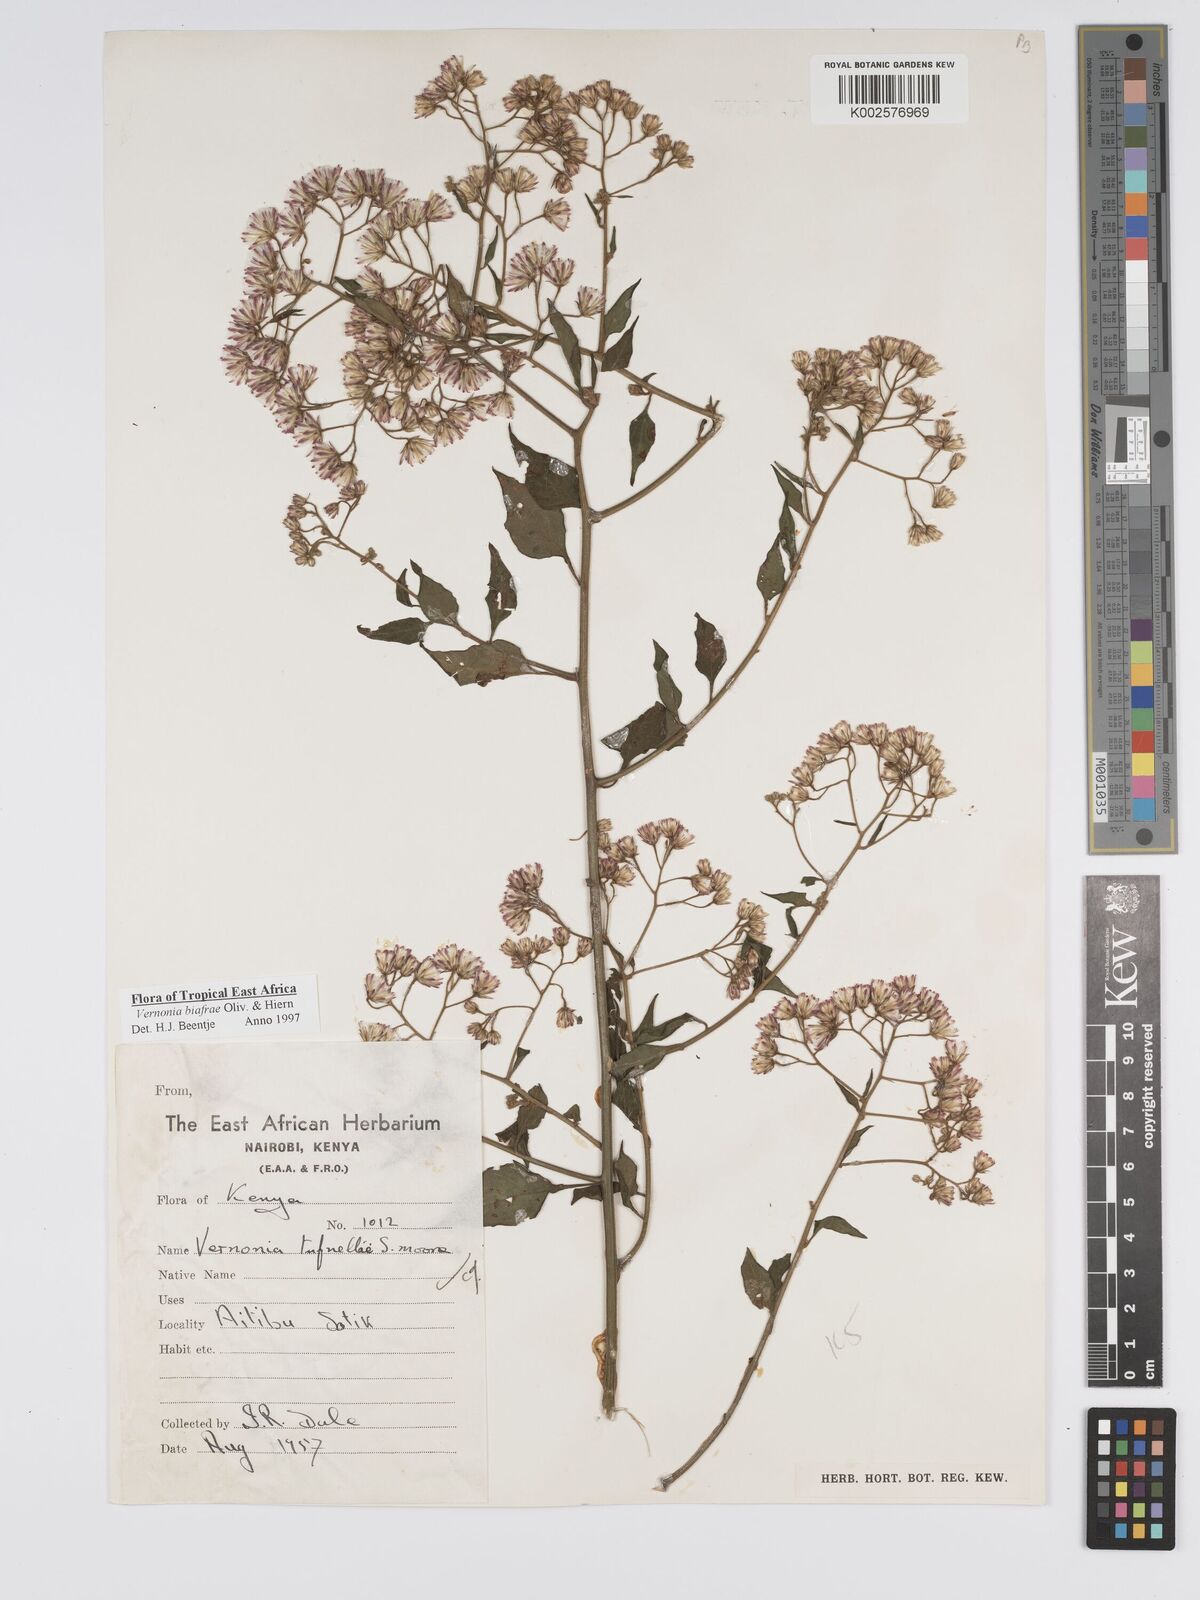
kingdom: Plantae
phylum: Tracheophyta
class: Magnoliopsida
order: Asterales
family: Asteraceae
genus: Distephanus
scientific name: Distephanus biafrae
